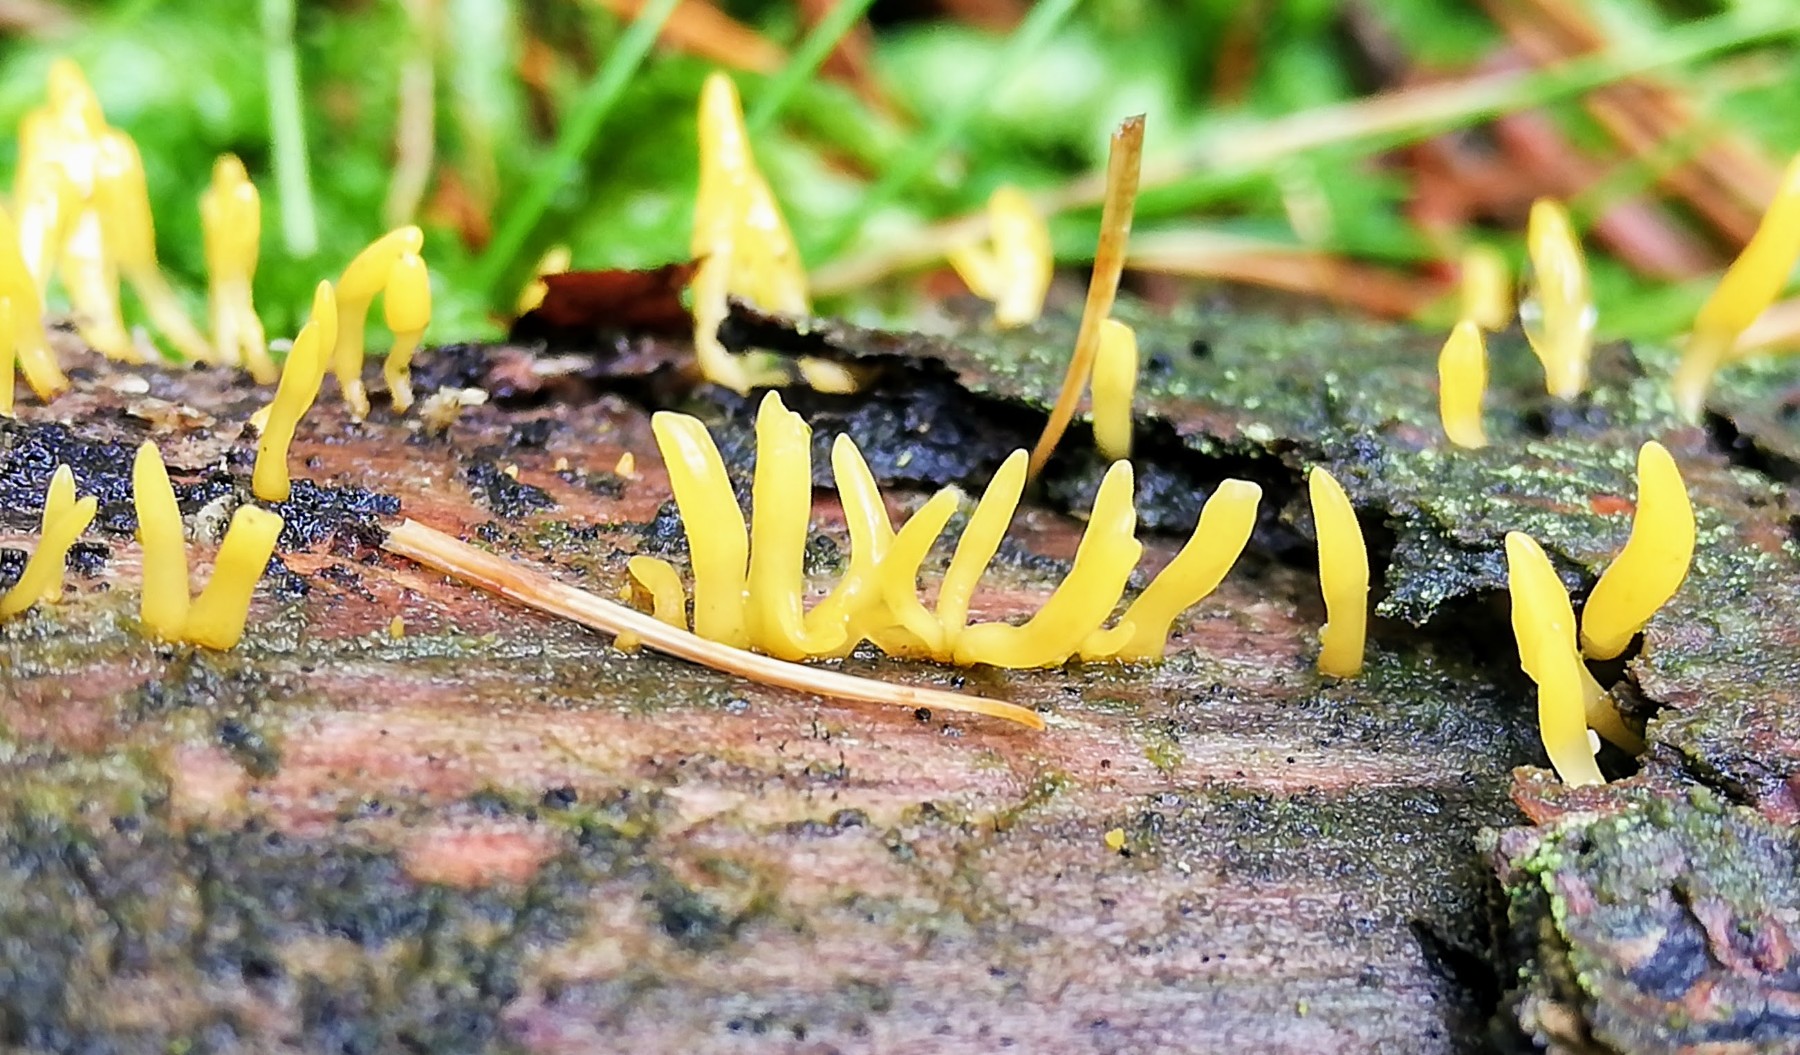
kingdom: Fungi
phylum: Basidiomycota
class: Dacrymycetes
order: Dacrymycetales
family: Dacrymycetaceae
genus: Calocera
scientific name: Calocera
